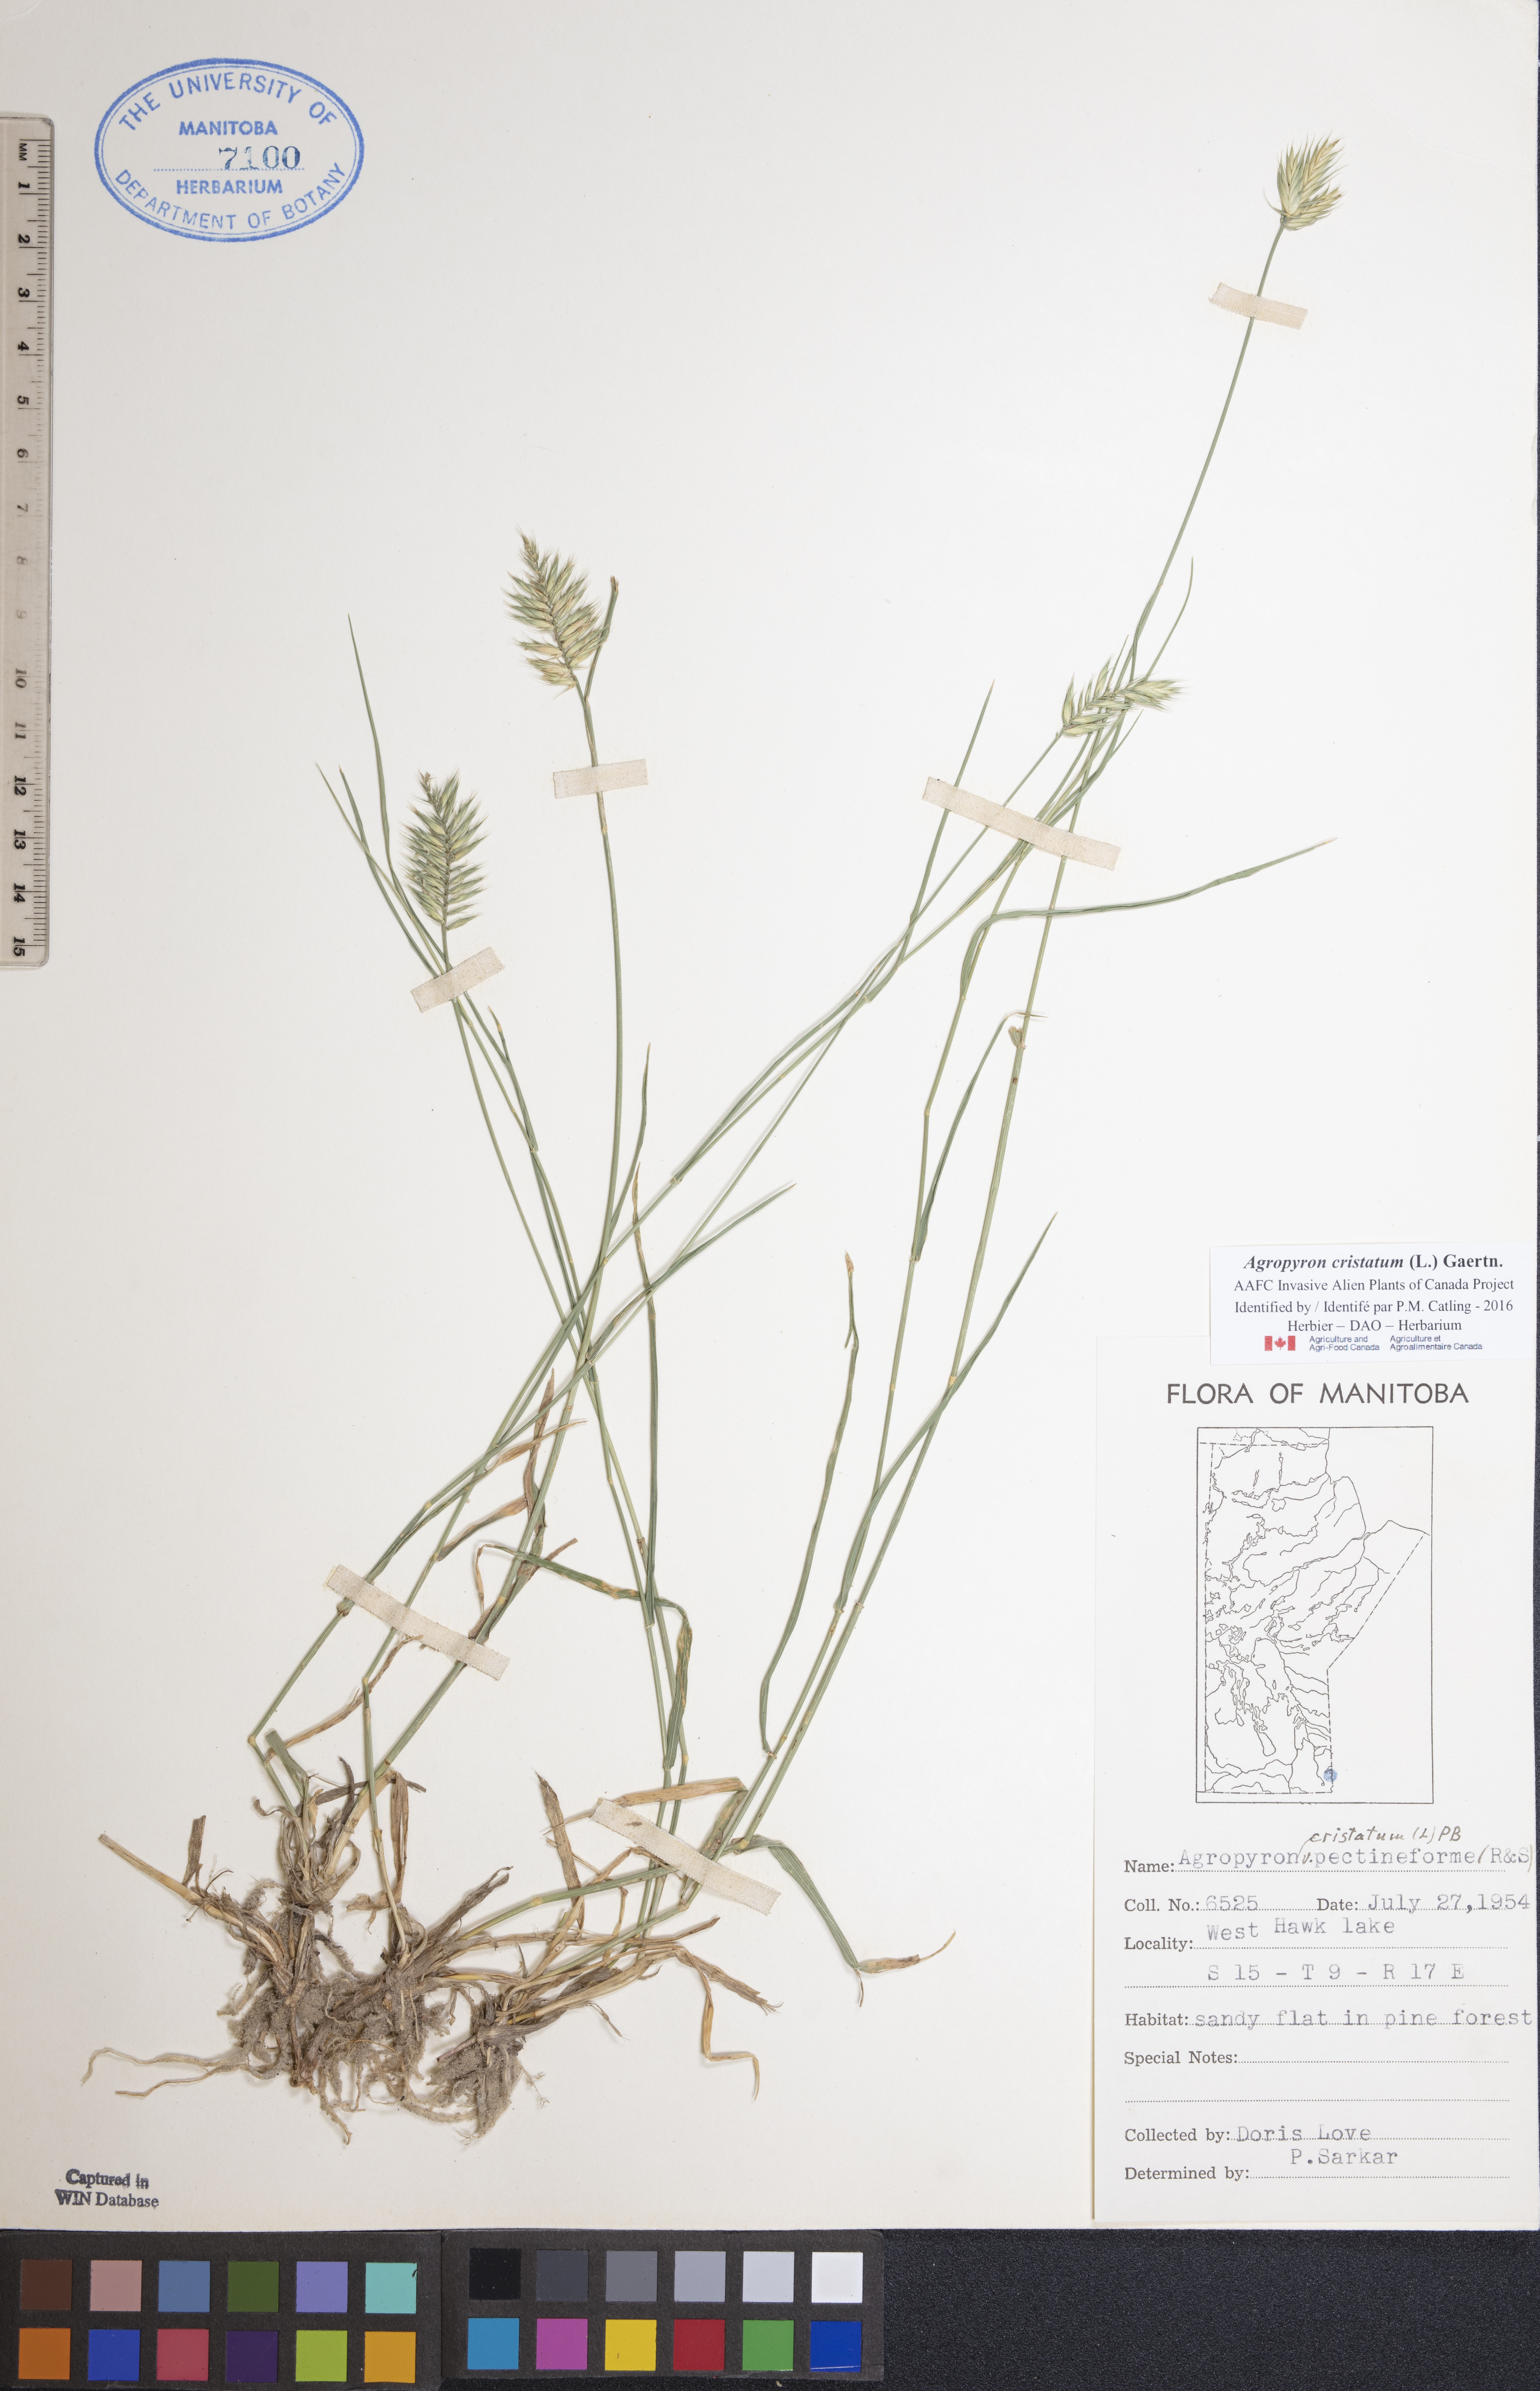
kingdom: Plantae
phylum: Tracheophyta
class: Liliopsida
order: Poales
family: Poaceae
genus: Agropyron
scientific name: Agropyron cristatum
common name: Crested wheatgrass
